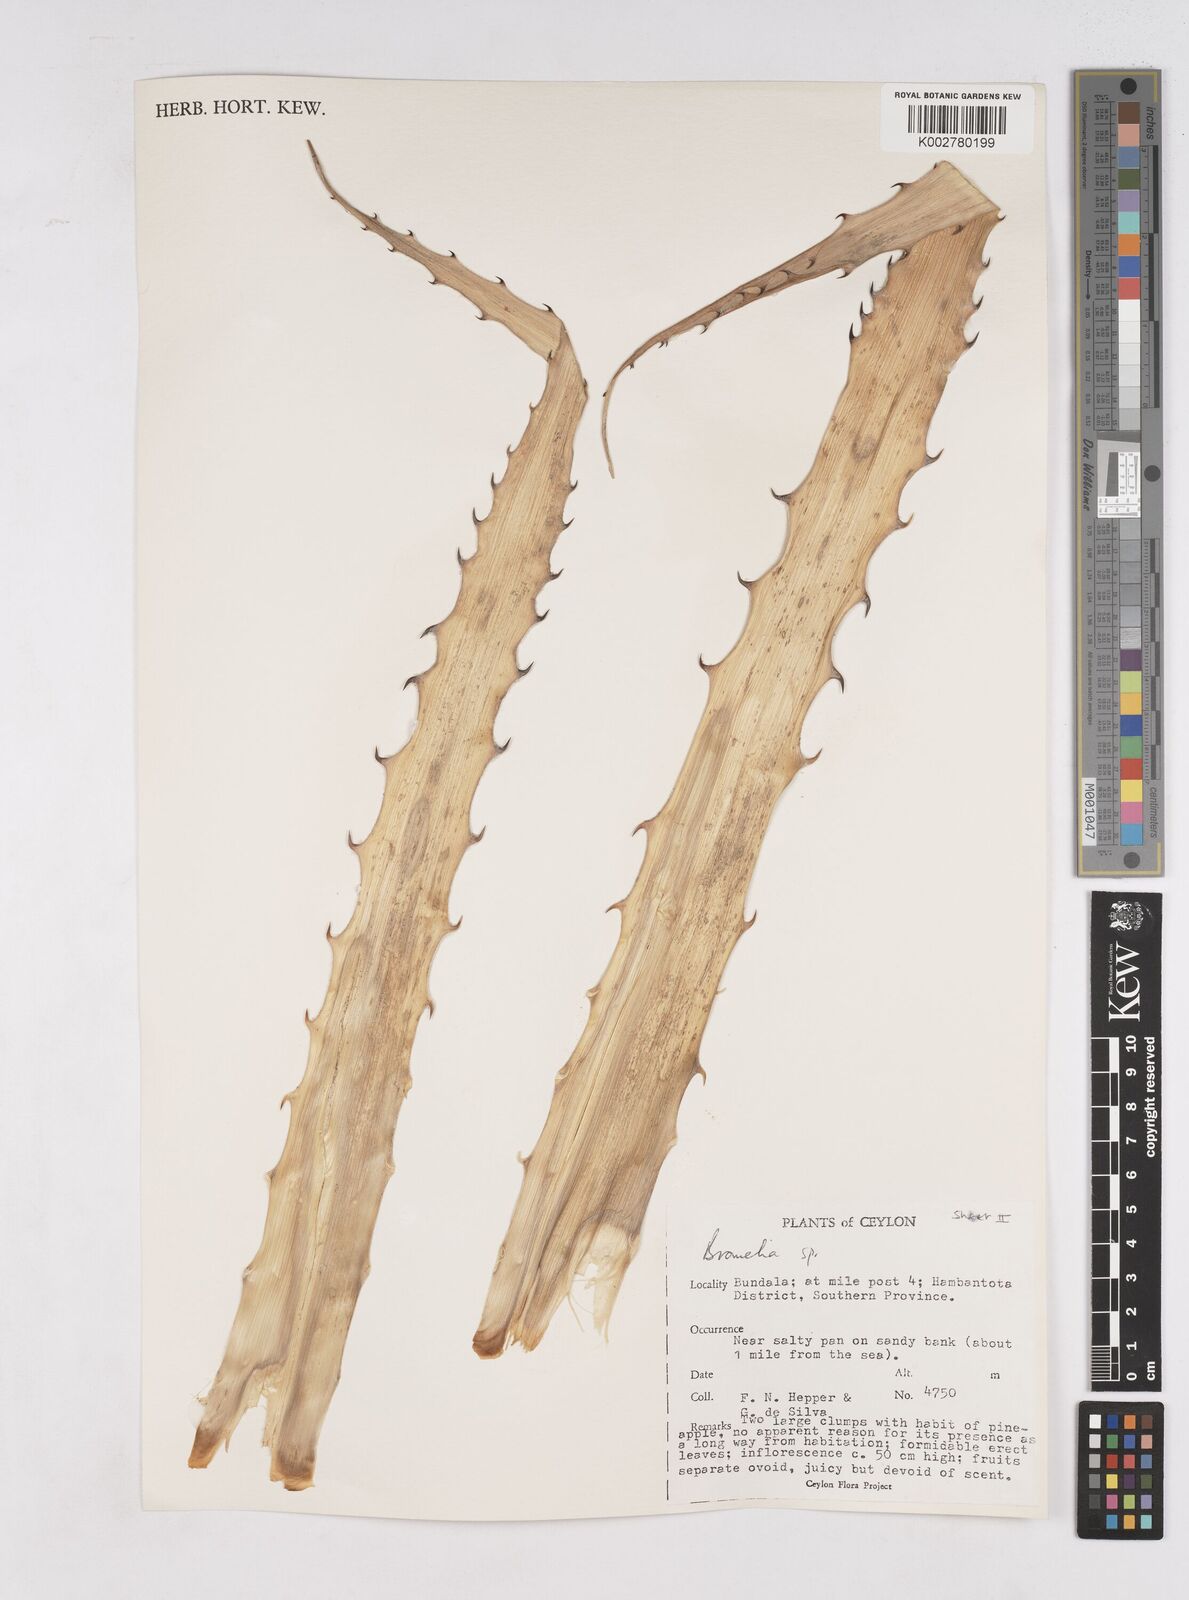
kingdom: Plantae
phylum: Tracheophyta
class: Liliopsida
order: Poales
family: Bromeliaceae
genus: Bromelia
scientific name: Bromelia
